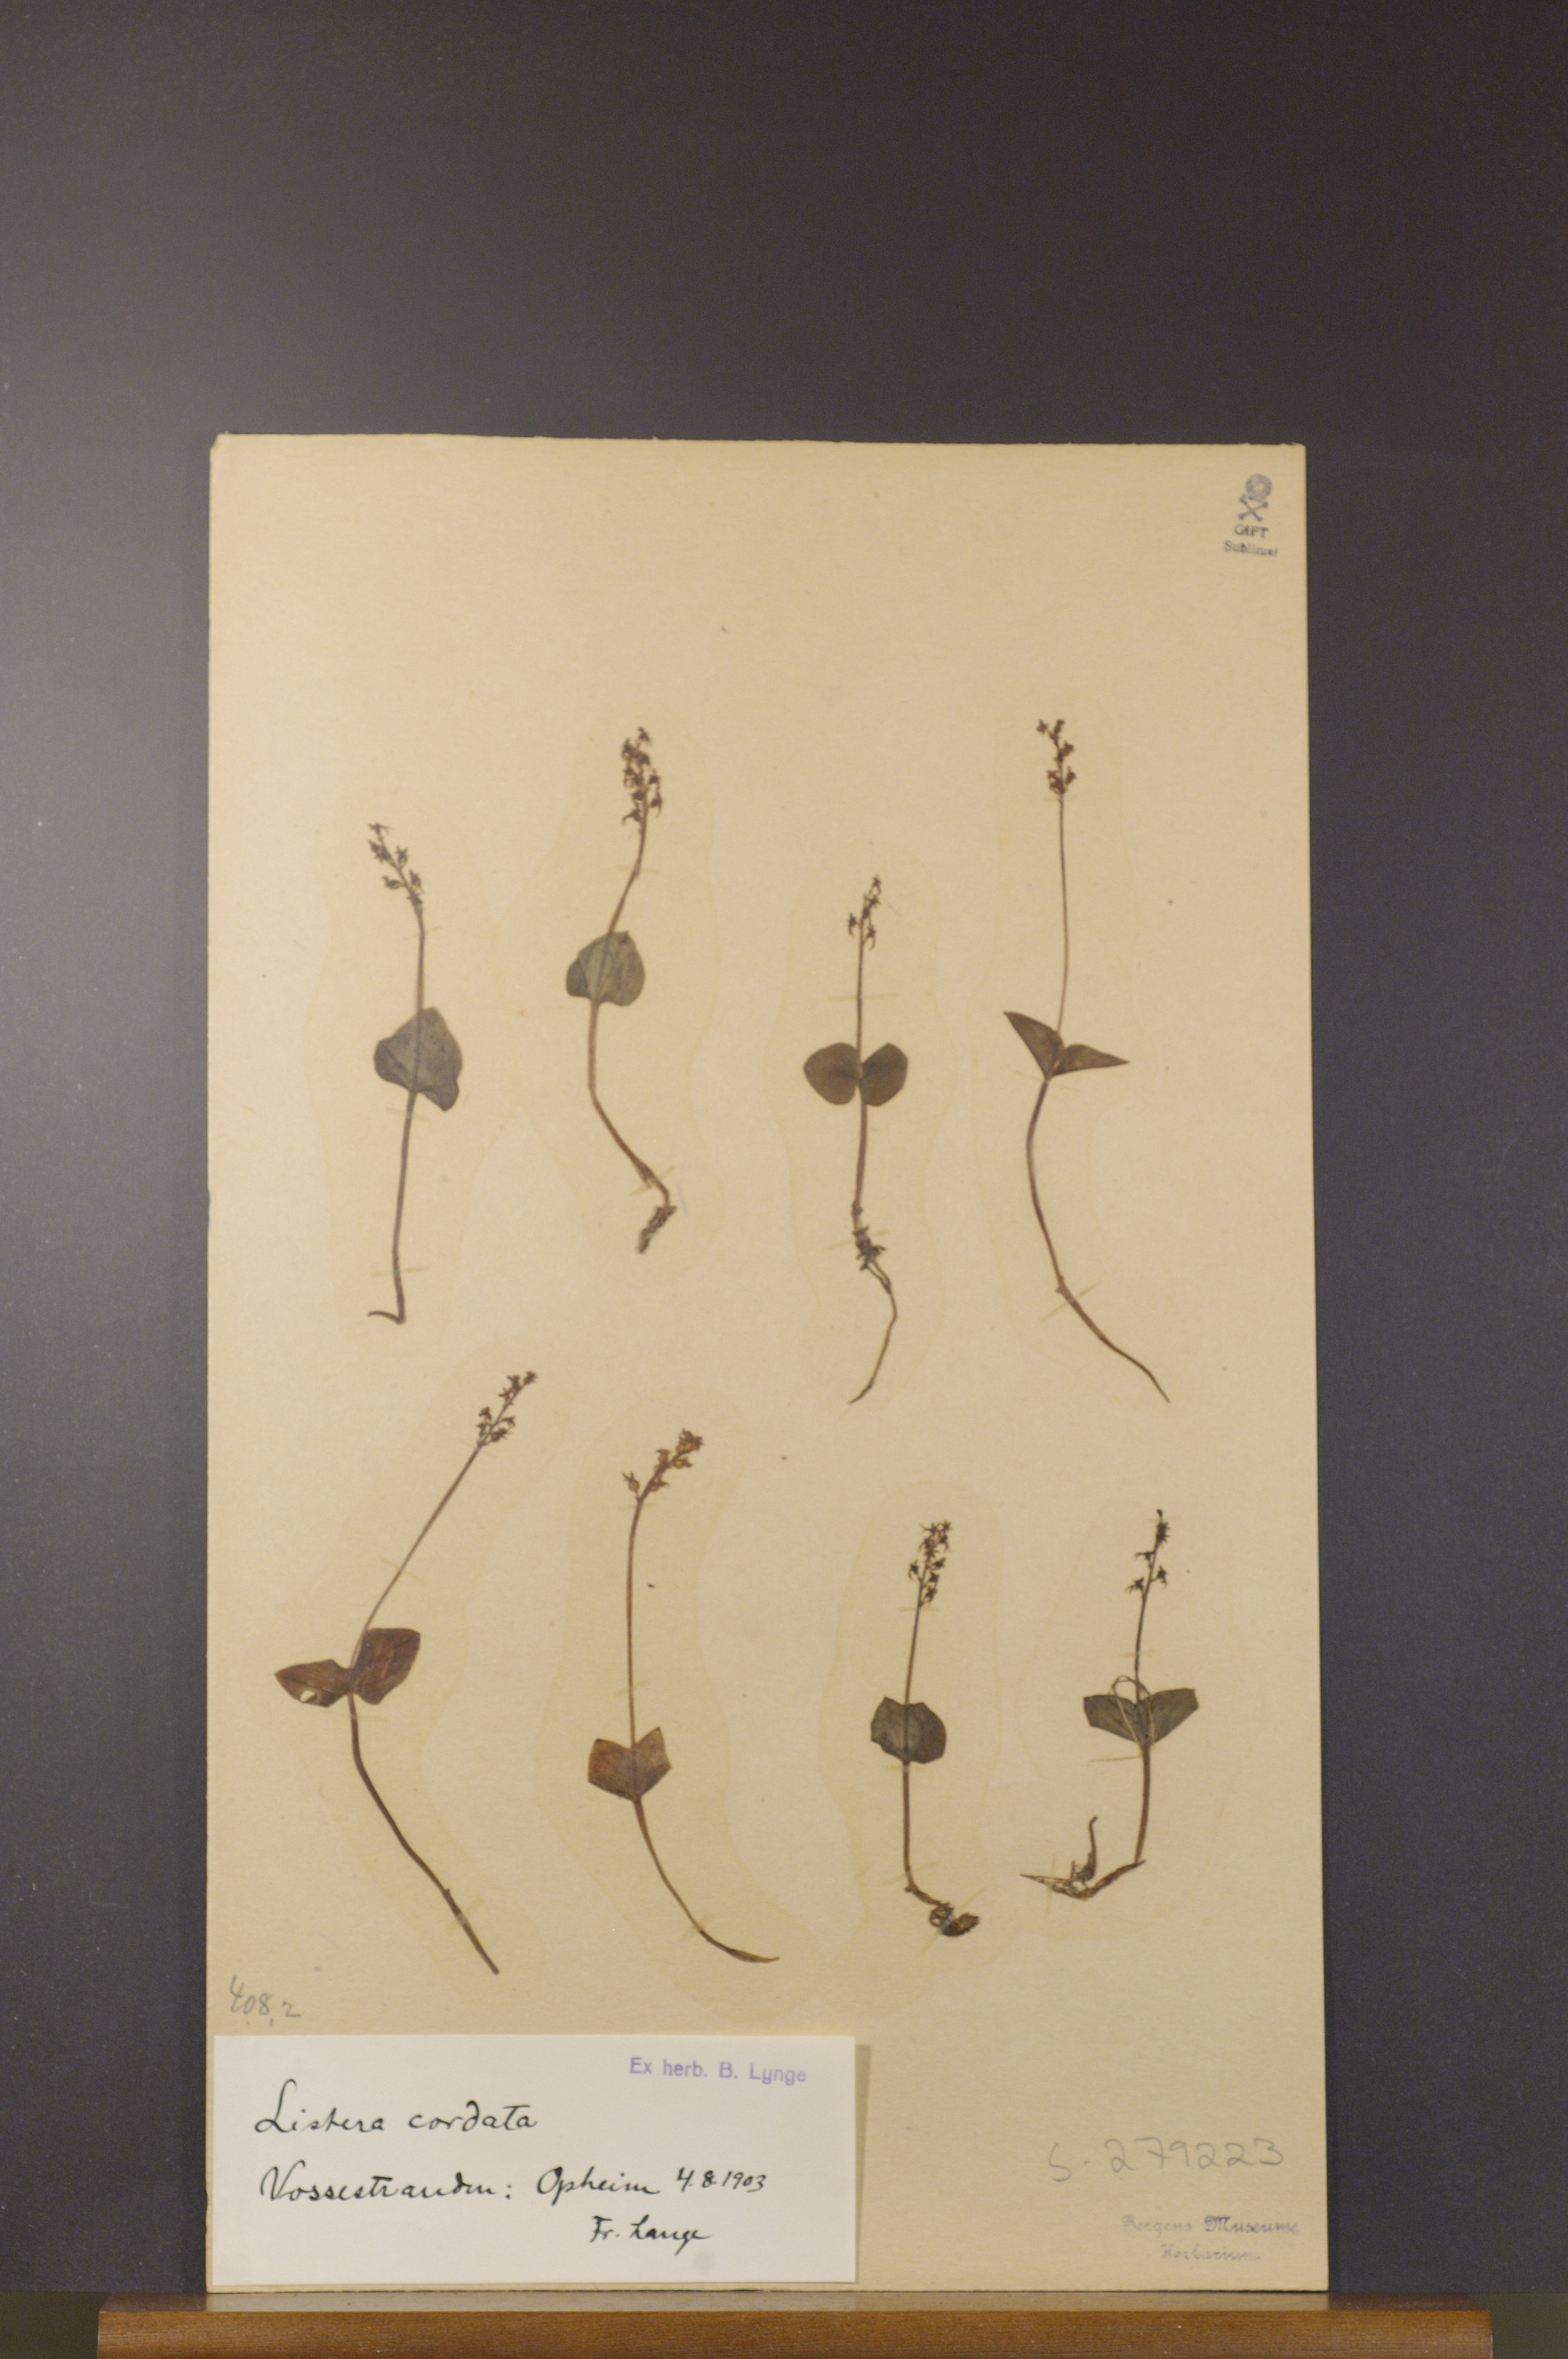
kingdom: Plantae
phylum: Tracheophyta
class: Liliopsida
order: Asparagales
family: Orchidaceae
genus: Neottia
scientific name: Neottia cordata
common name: Lesser twayblade
